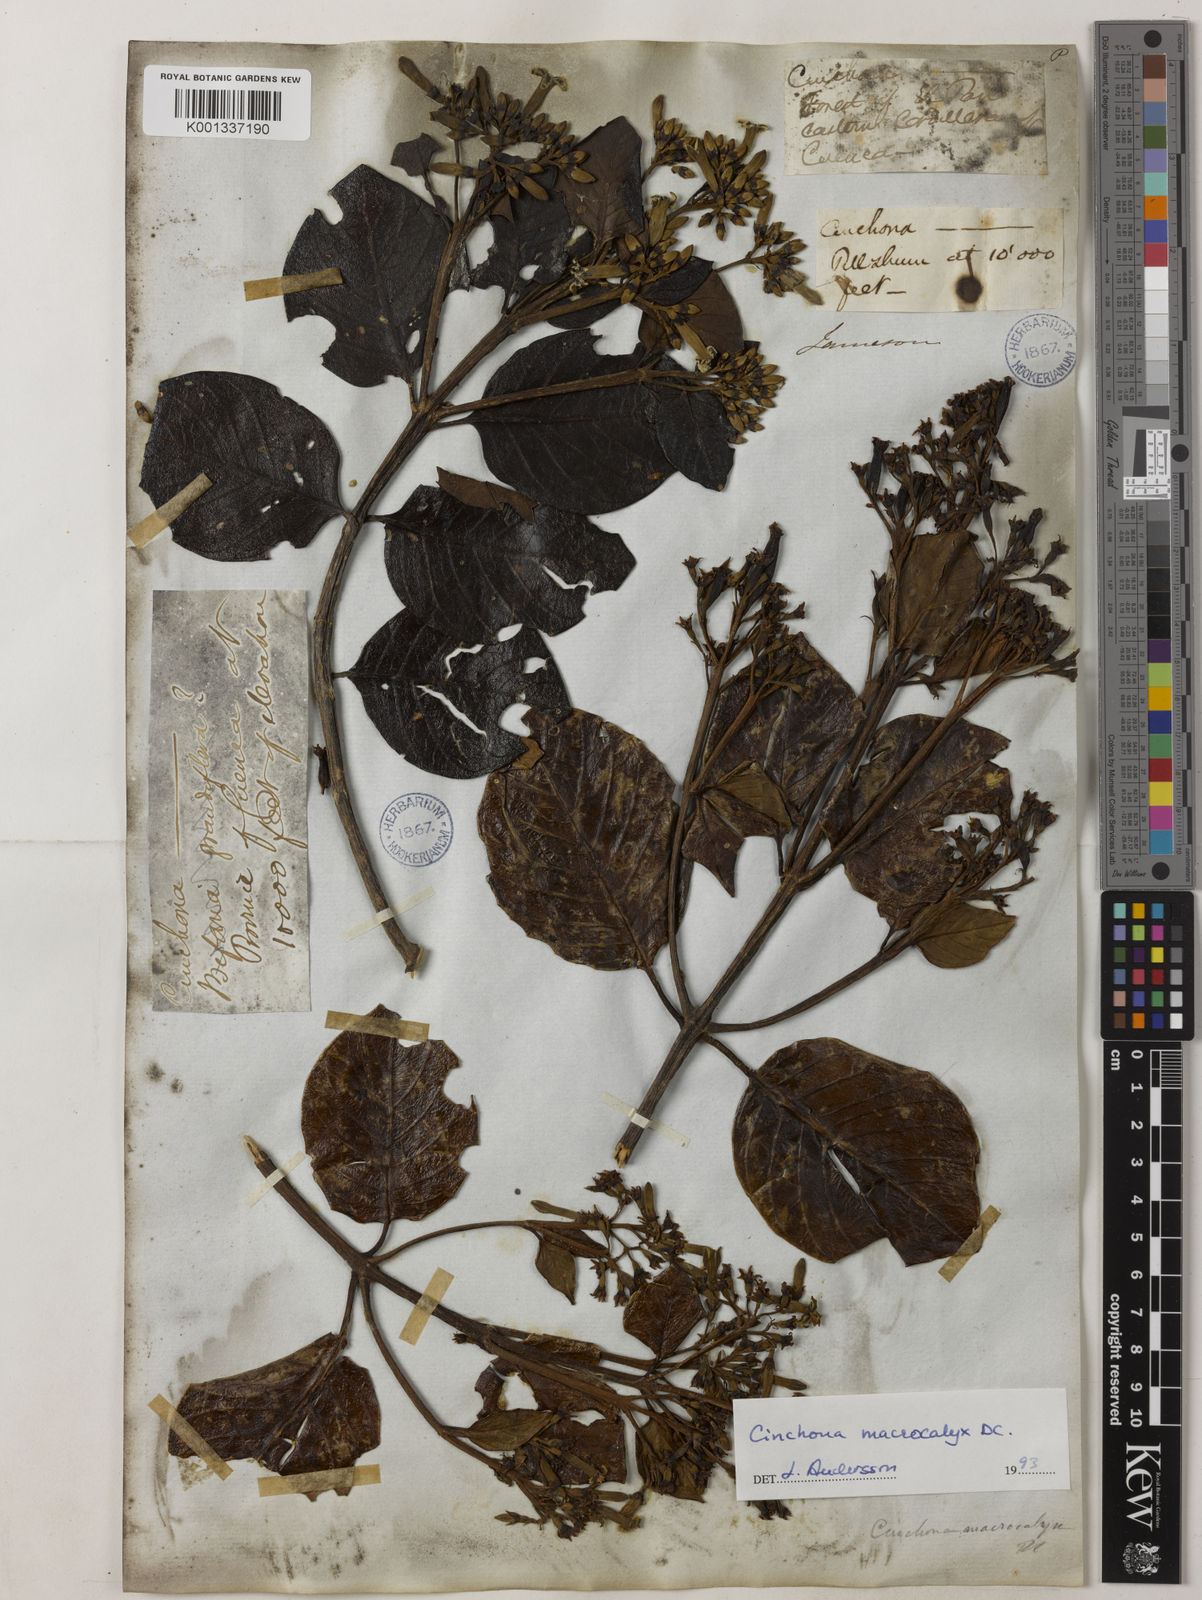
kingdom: Plantae
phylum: Tracheophyta
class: Magnoliopsida
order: Gentianales
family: Rubiaceae
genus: Cinchona
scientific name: Cinchona macrocalyx
